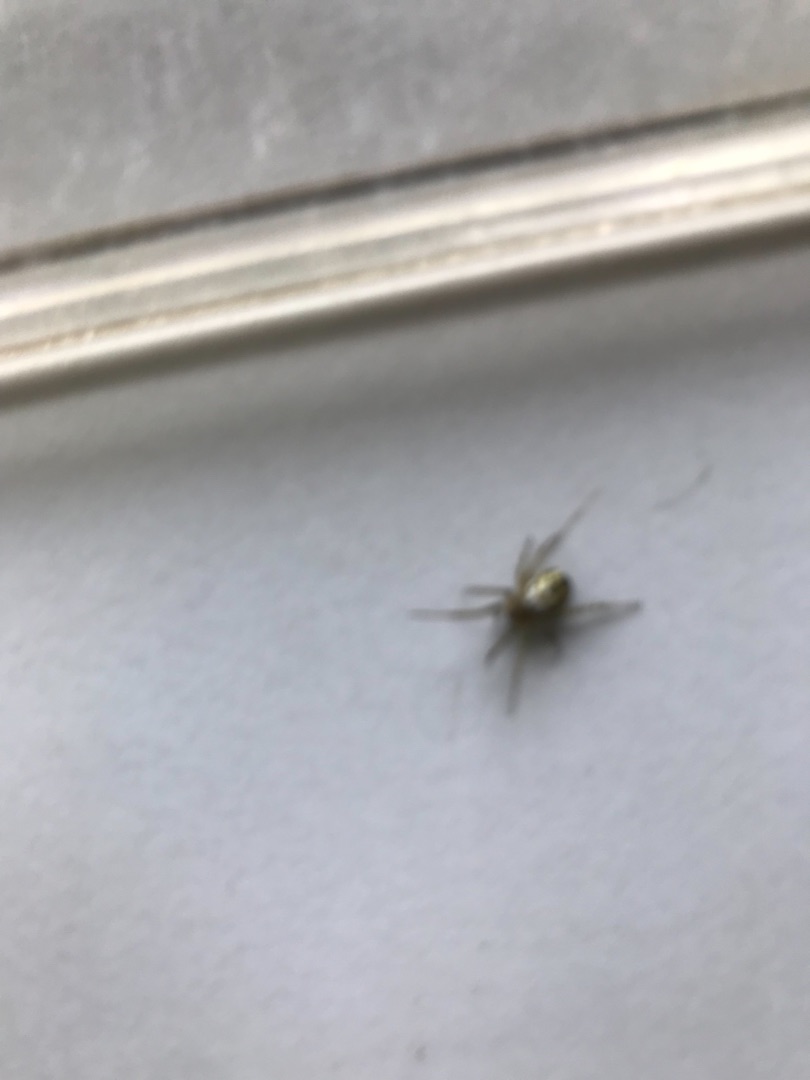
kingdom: Animalia
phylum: Arthropoda
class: Arachnida
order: Araneae
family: Araneidae
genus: Argiope
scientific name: Argiope bruennichi
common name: Hvepseedderkop
